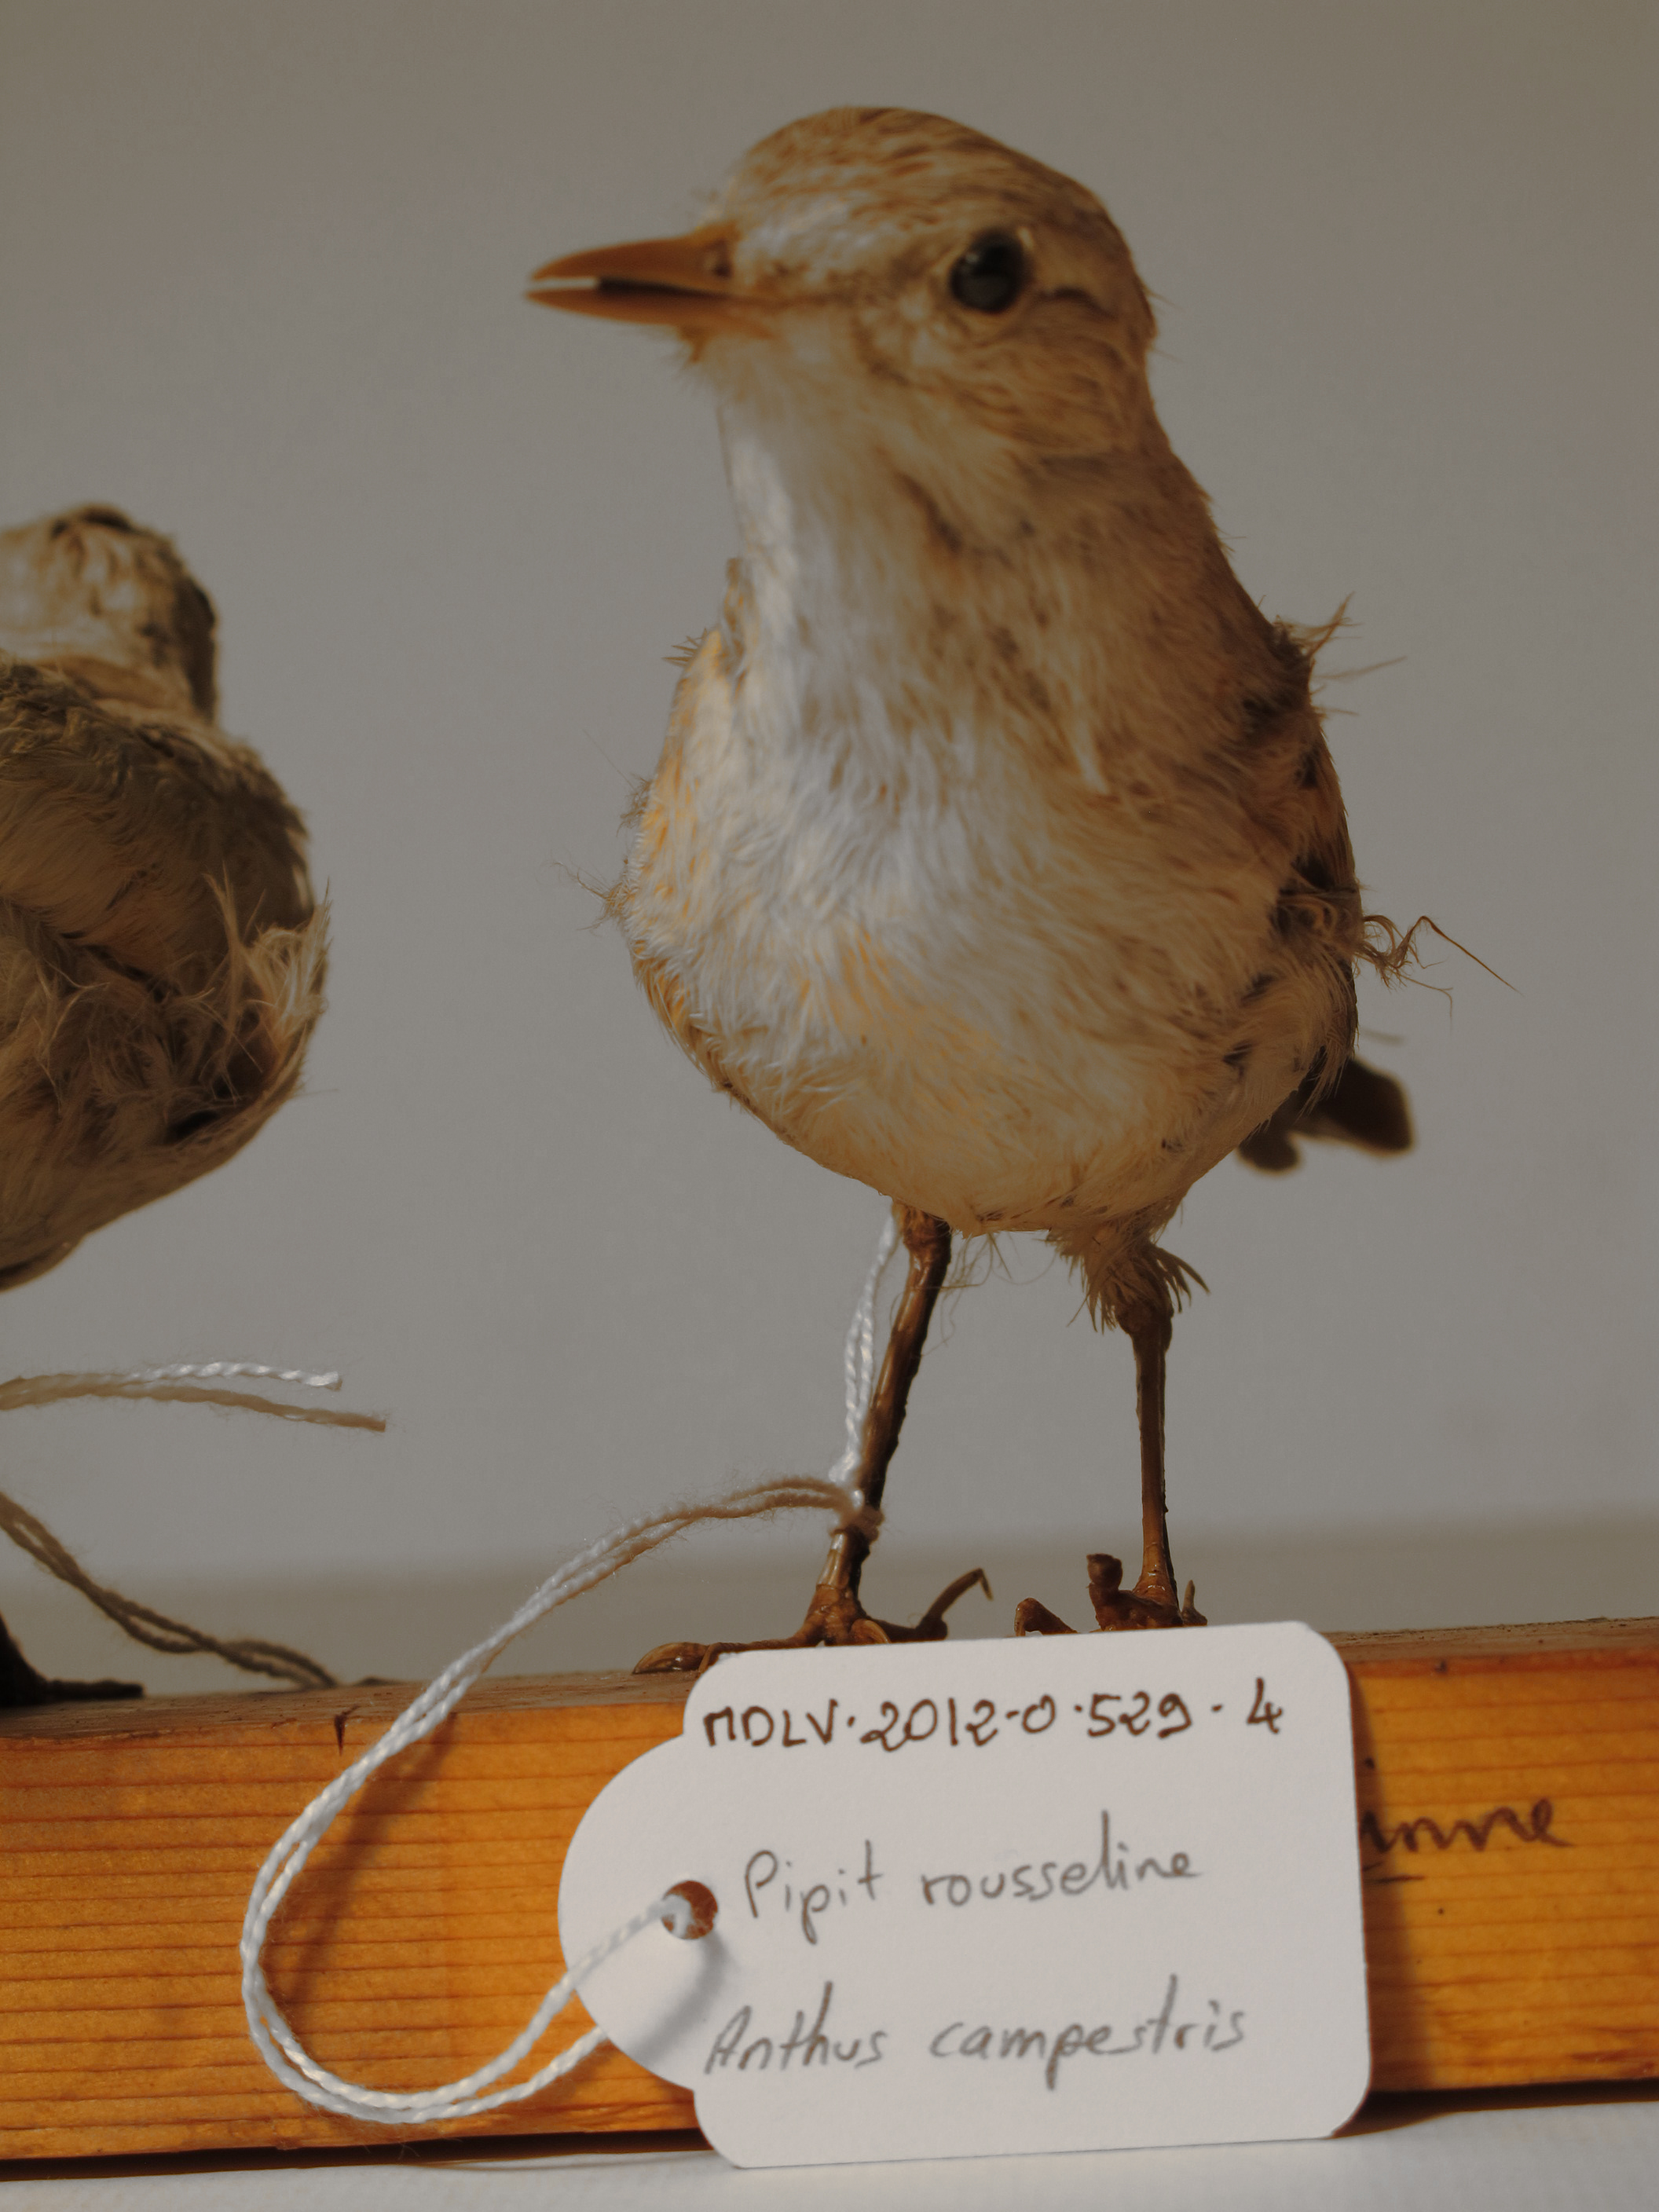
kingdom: Animalia
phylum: Chordata
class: Aves
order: Passeriformes
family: Motacillidae
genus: Anthus
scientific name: Anthus campestris
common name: Tawny Pipit
